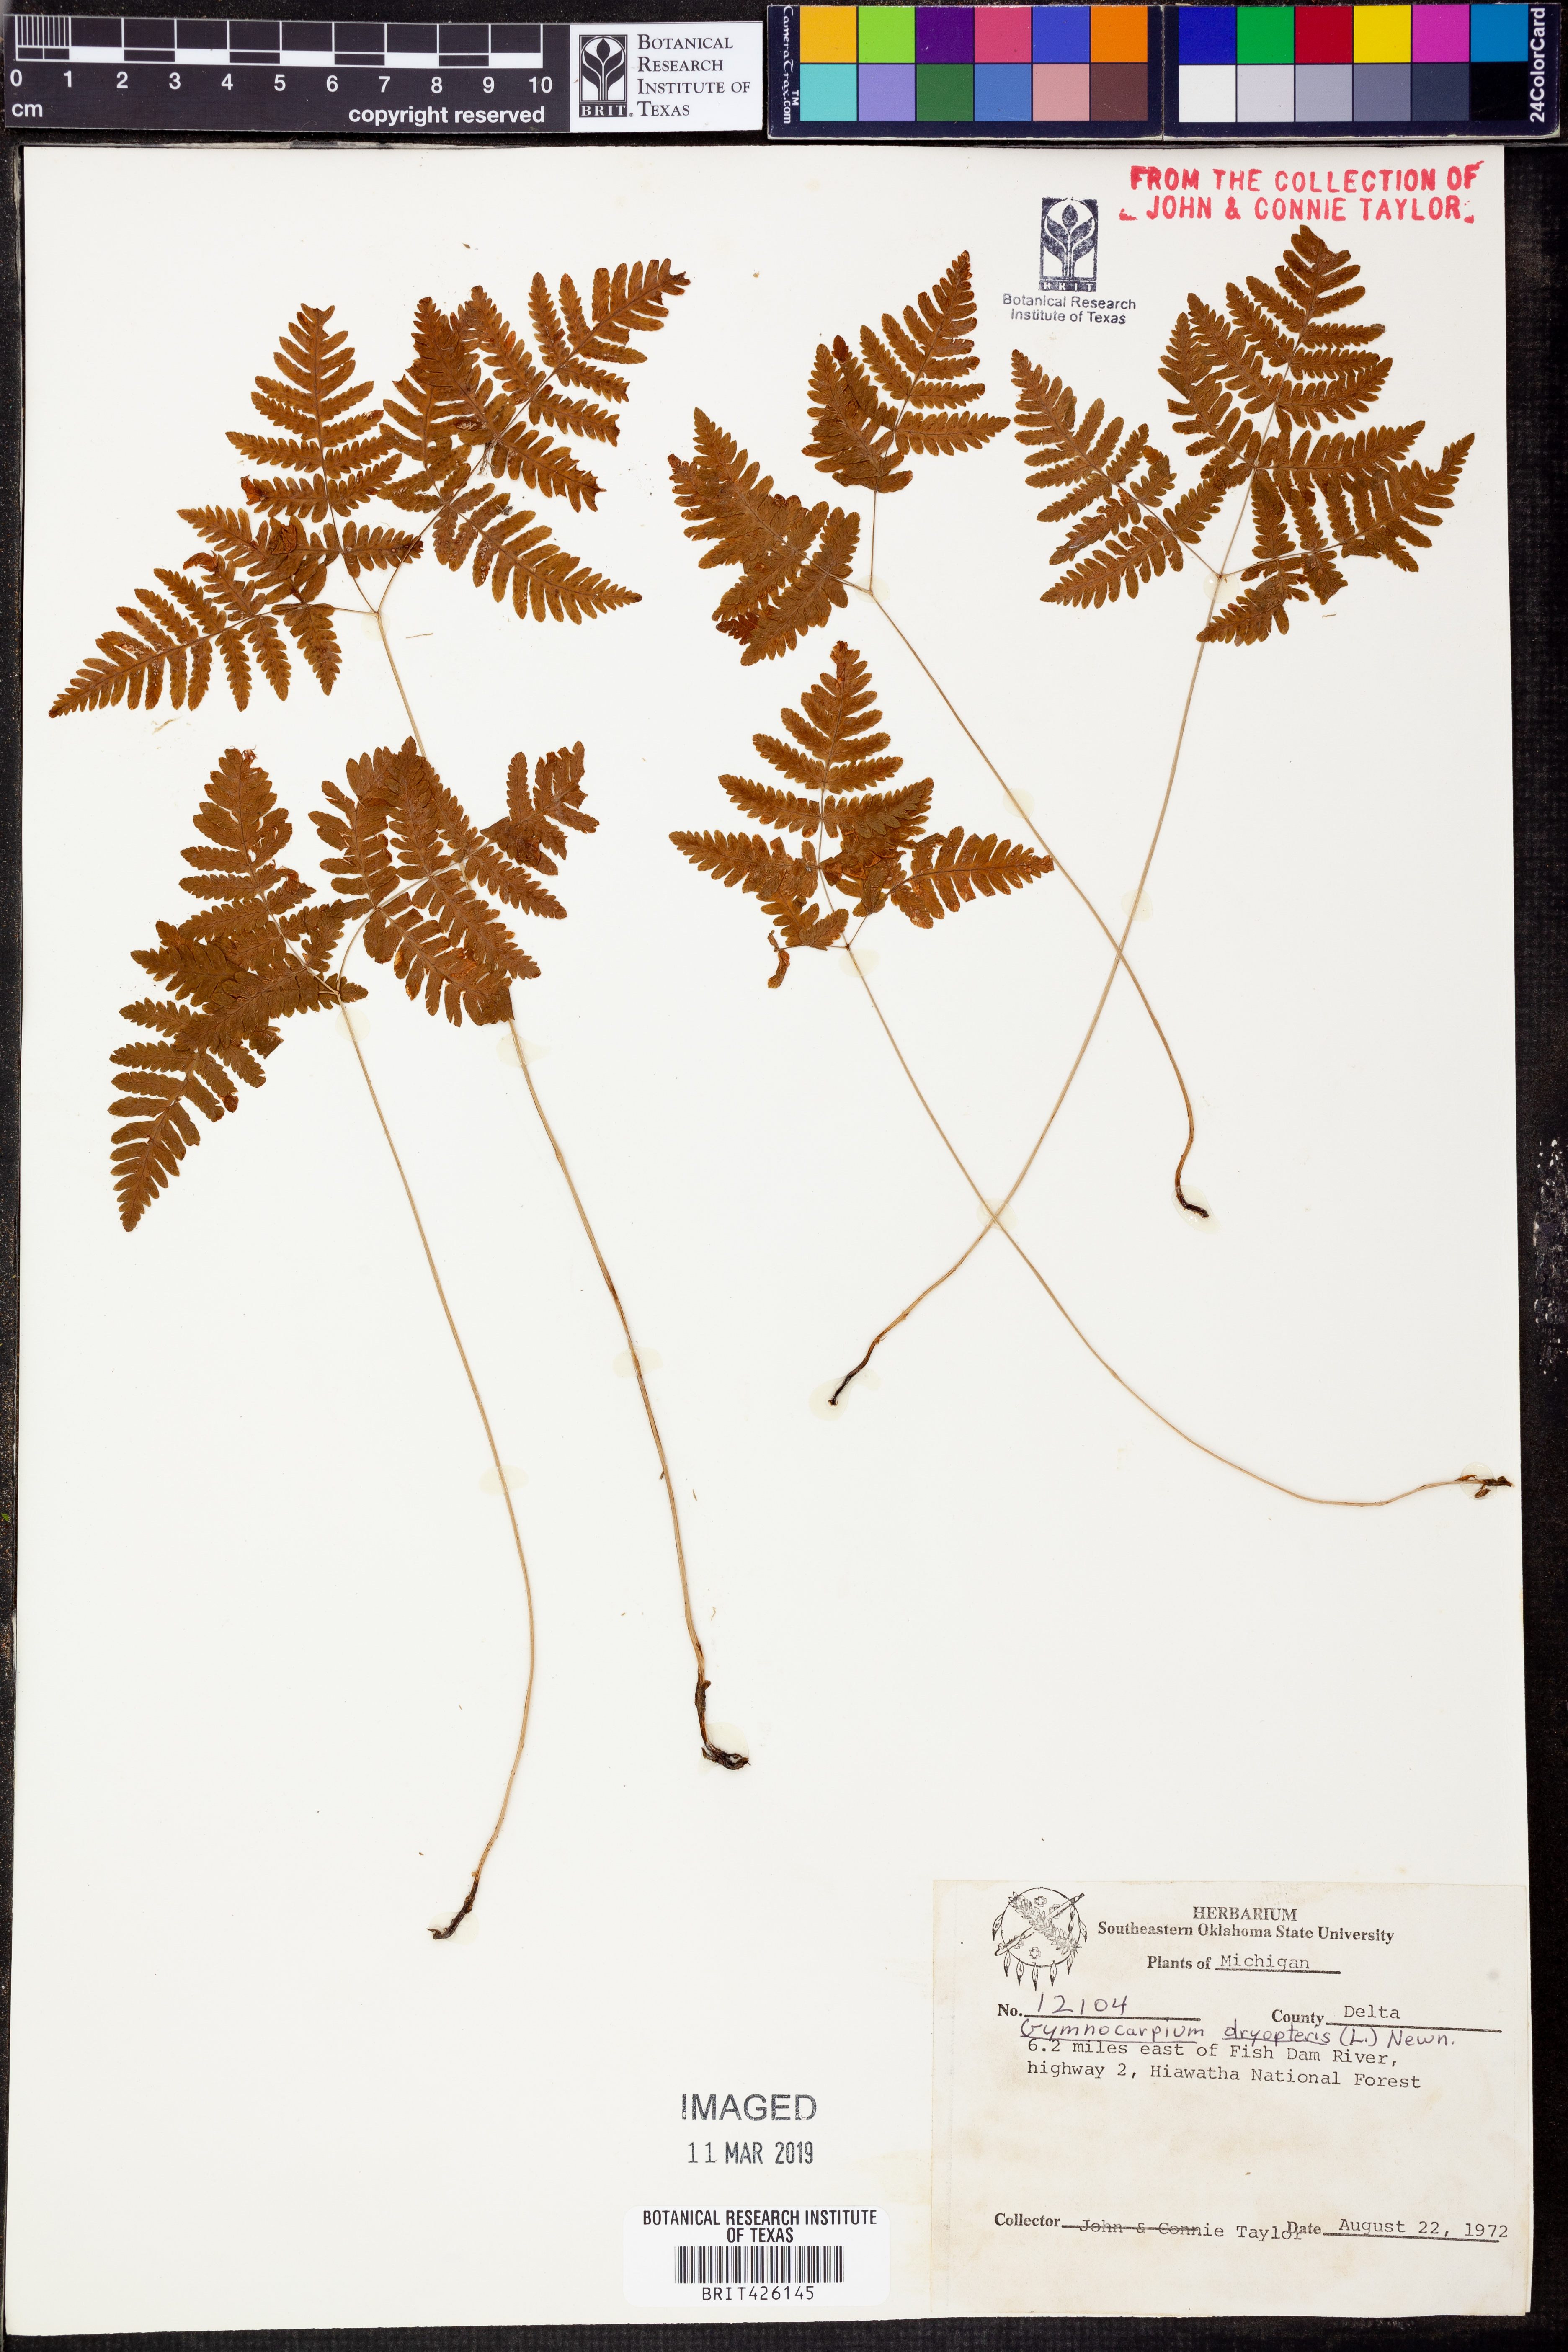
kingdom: Plantae
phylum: Tracheophyta
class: Polypodiopsida
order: Polypodiales
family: Cystopteridaceae
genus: Gymnocarpium
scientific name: Gymnocarpium dryopteris
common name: Oak fern
